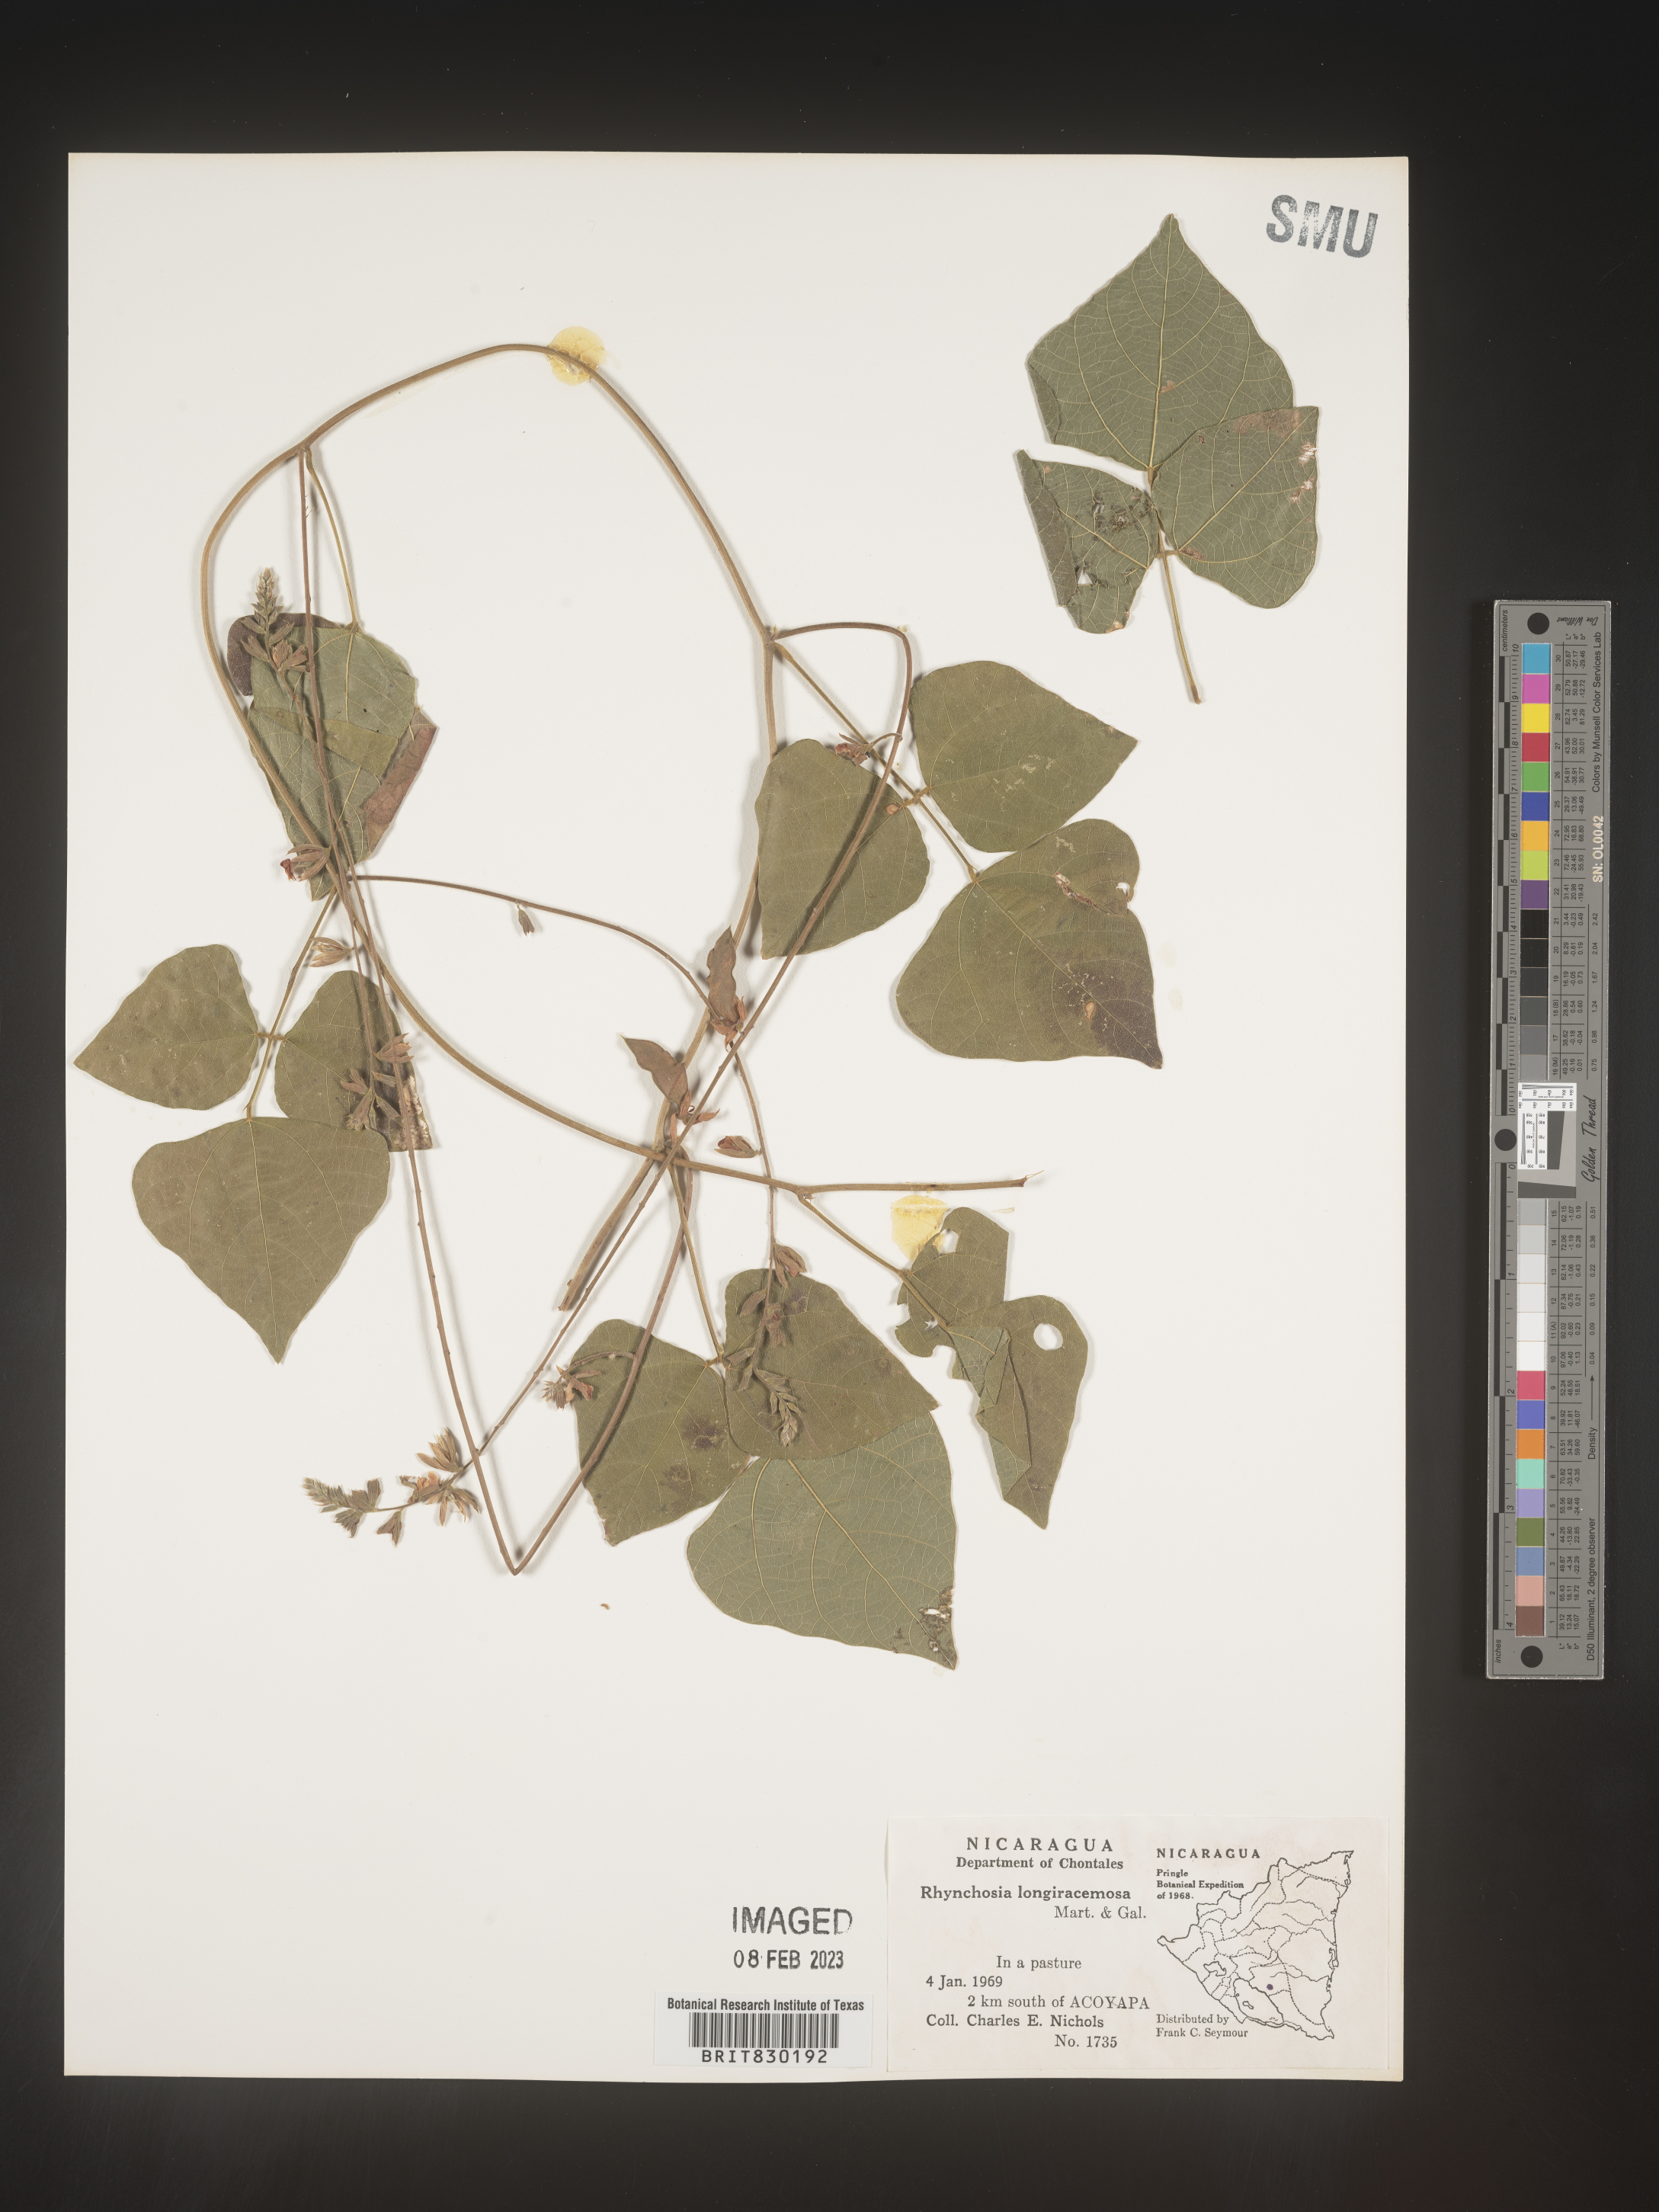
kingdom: Plantae
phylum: Tracheophyta
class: Magnoliopsida
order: Fabales
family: Fabaceae
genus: Rhynchosia
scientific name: Rhynchosia
